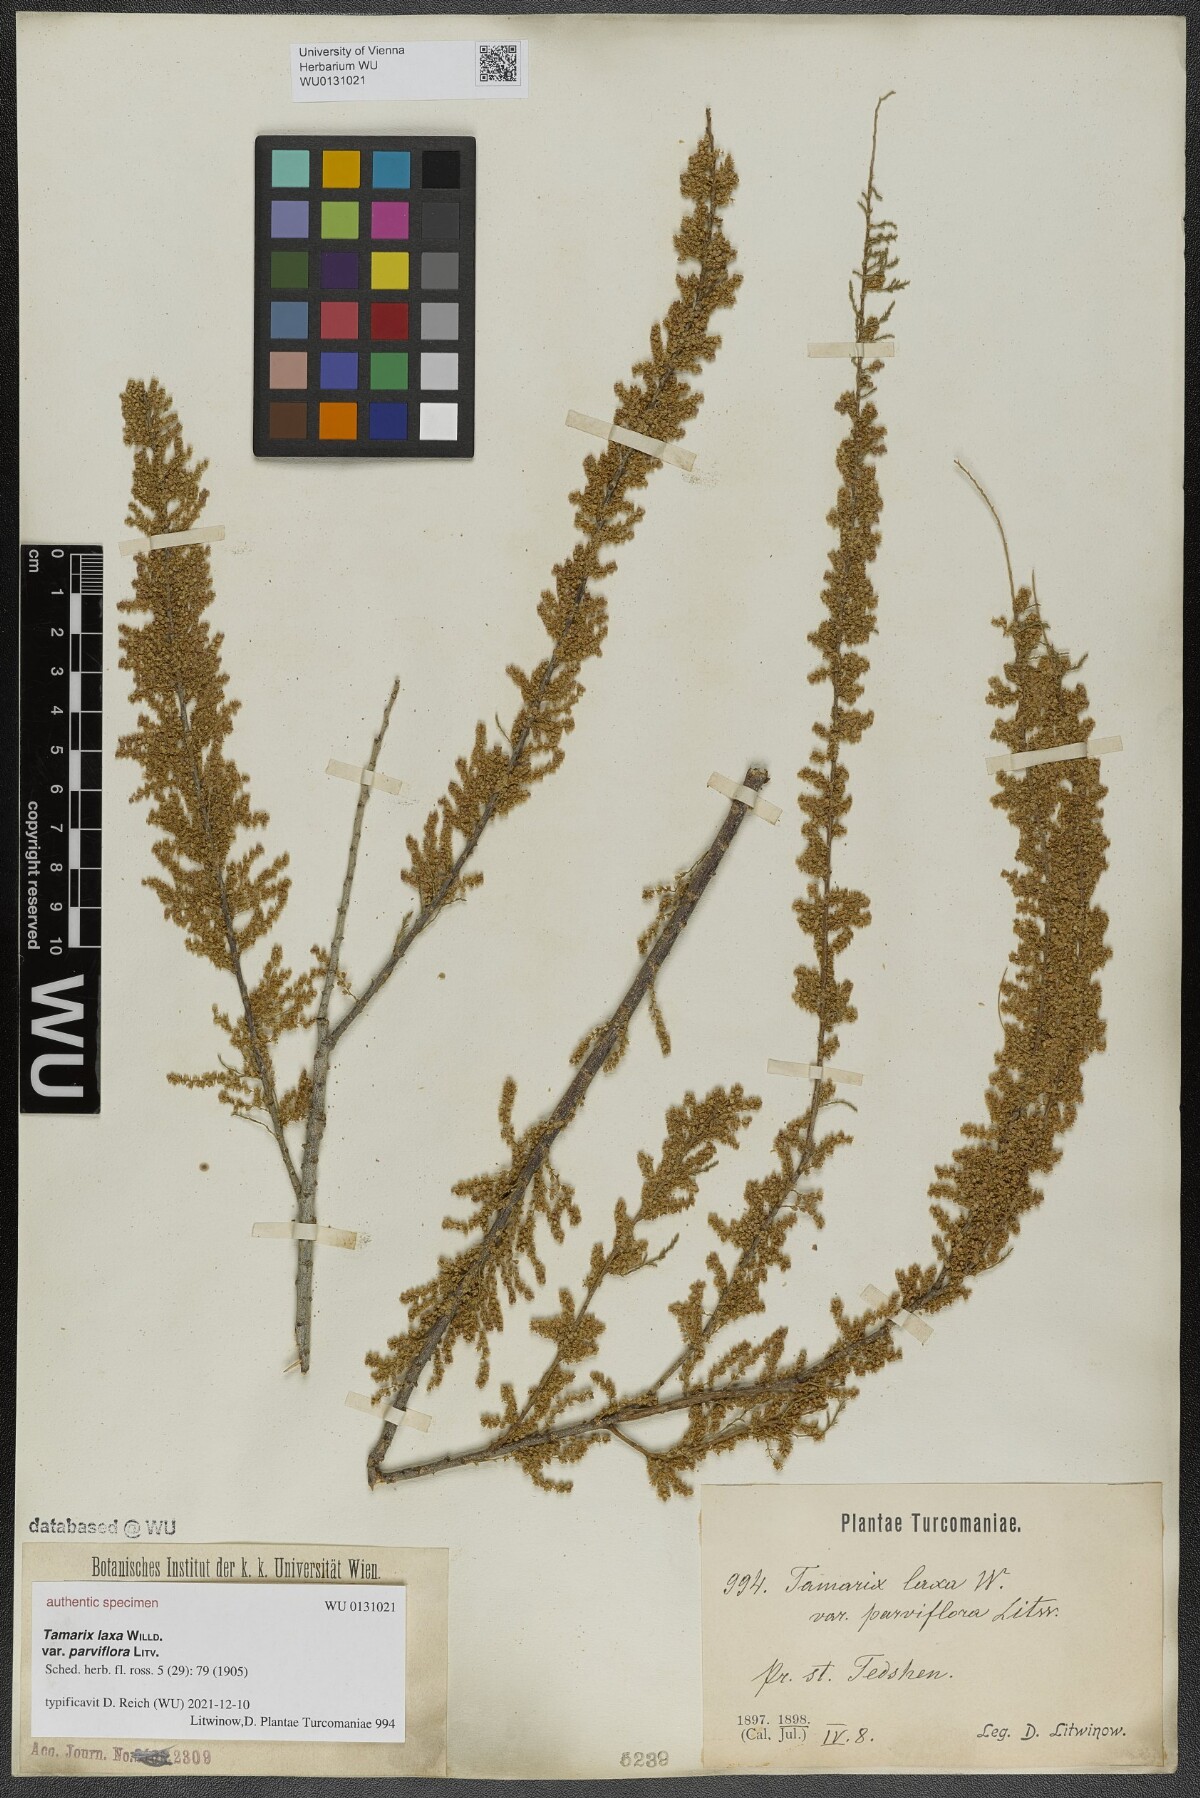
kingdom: Plantae
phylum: Tracheophyta
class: Magnoliopsida
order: Caryophyllales
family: Tamaricaceae
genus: Tamarix
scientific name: Tamarix litwinowii
